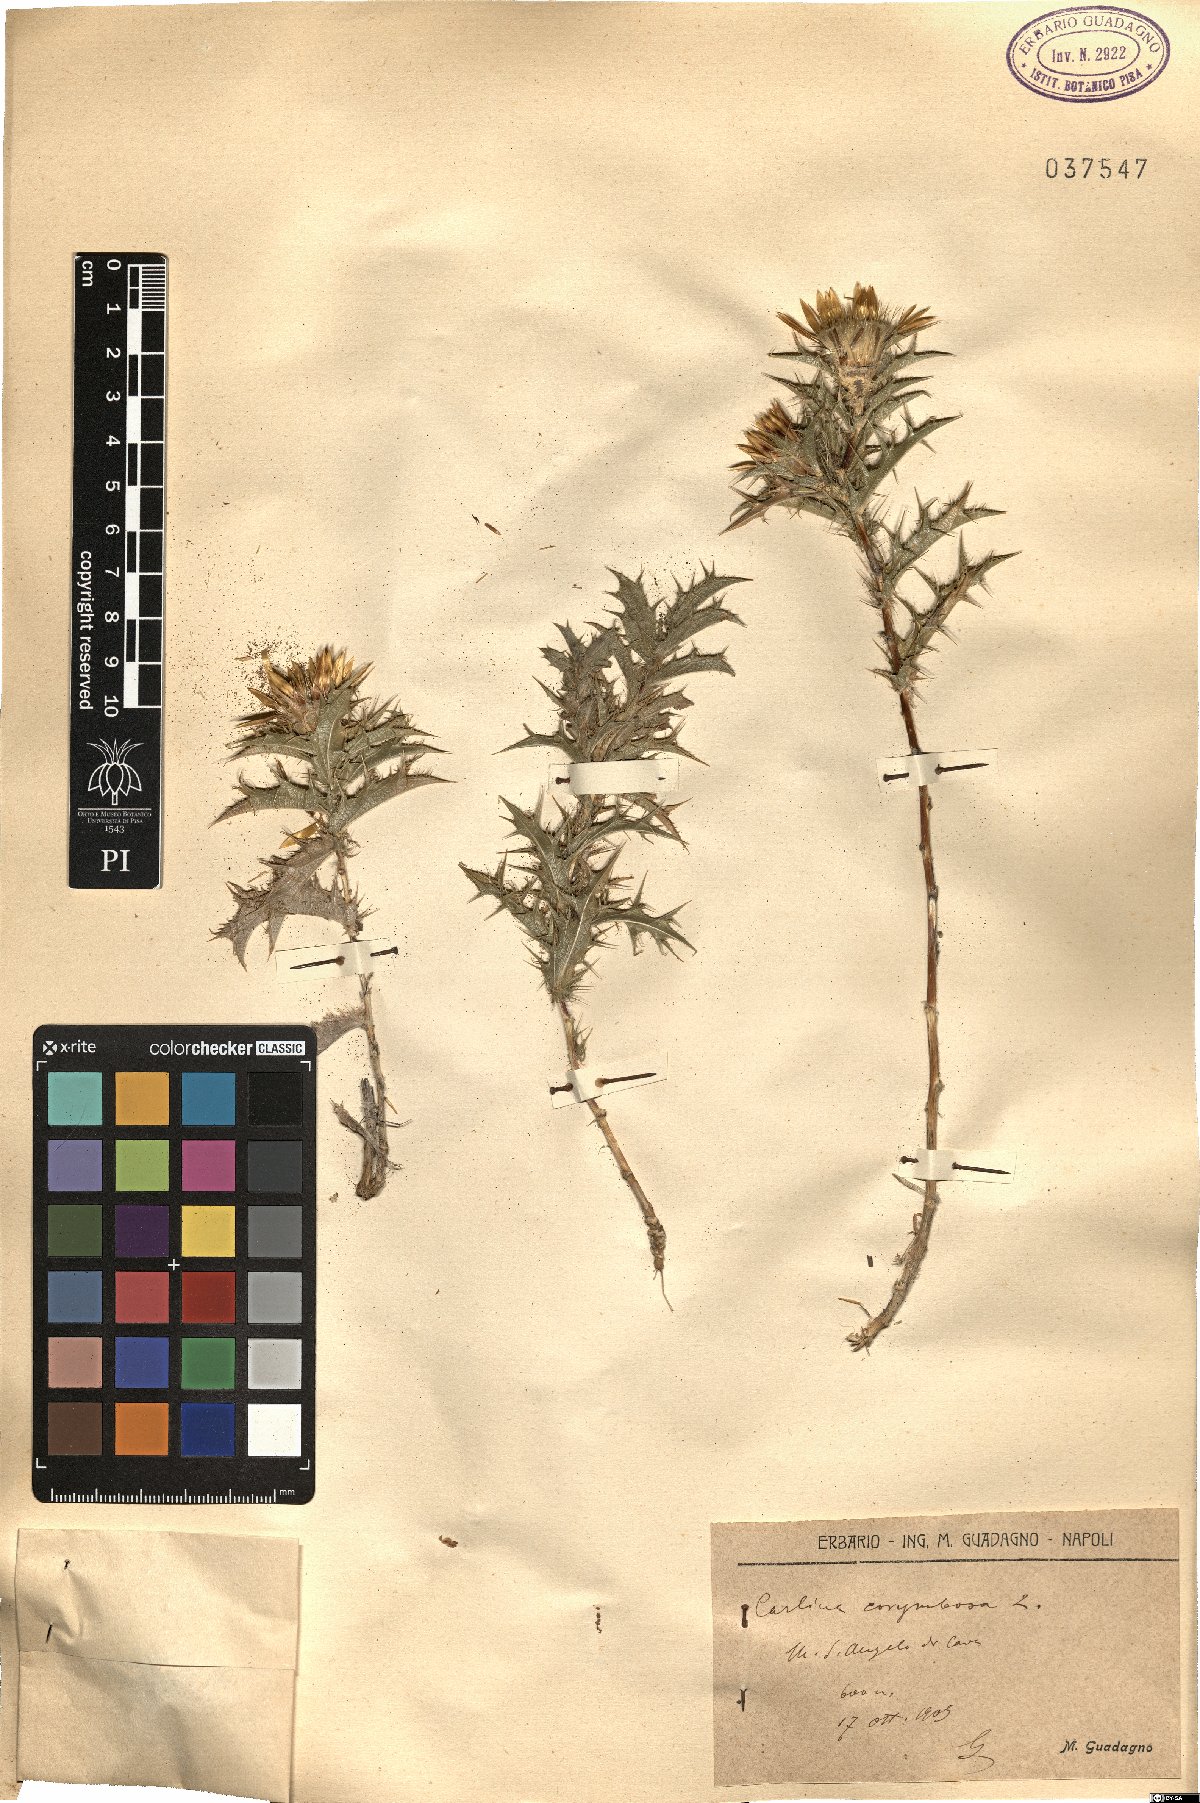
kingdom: Plantae
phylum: Tracheophyta
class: Magnoliopsida
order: Asterales
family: Asteraceae
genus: Carlina
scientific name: Carlina corymbosa
